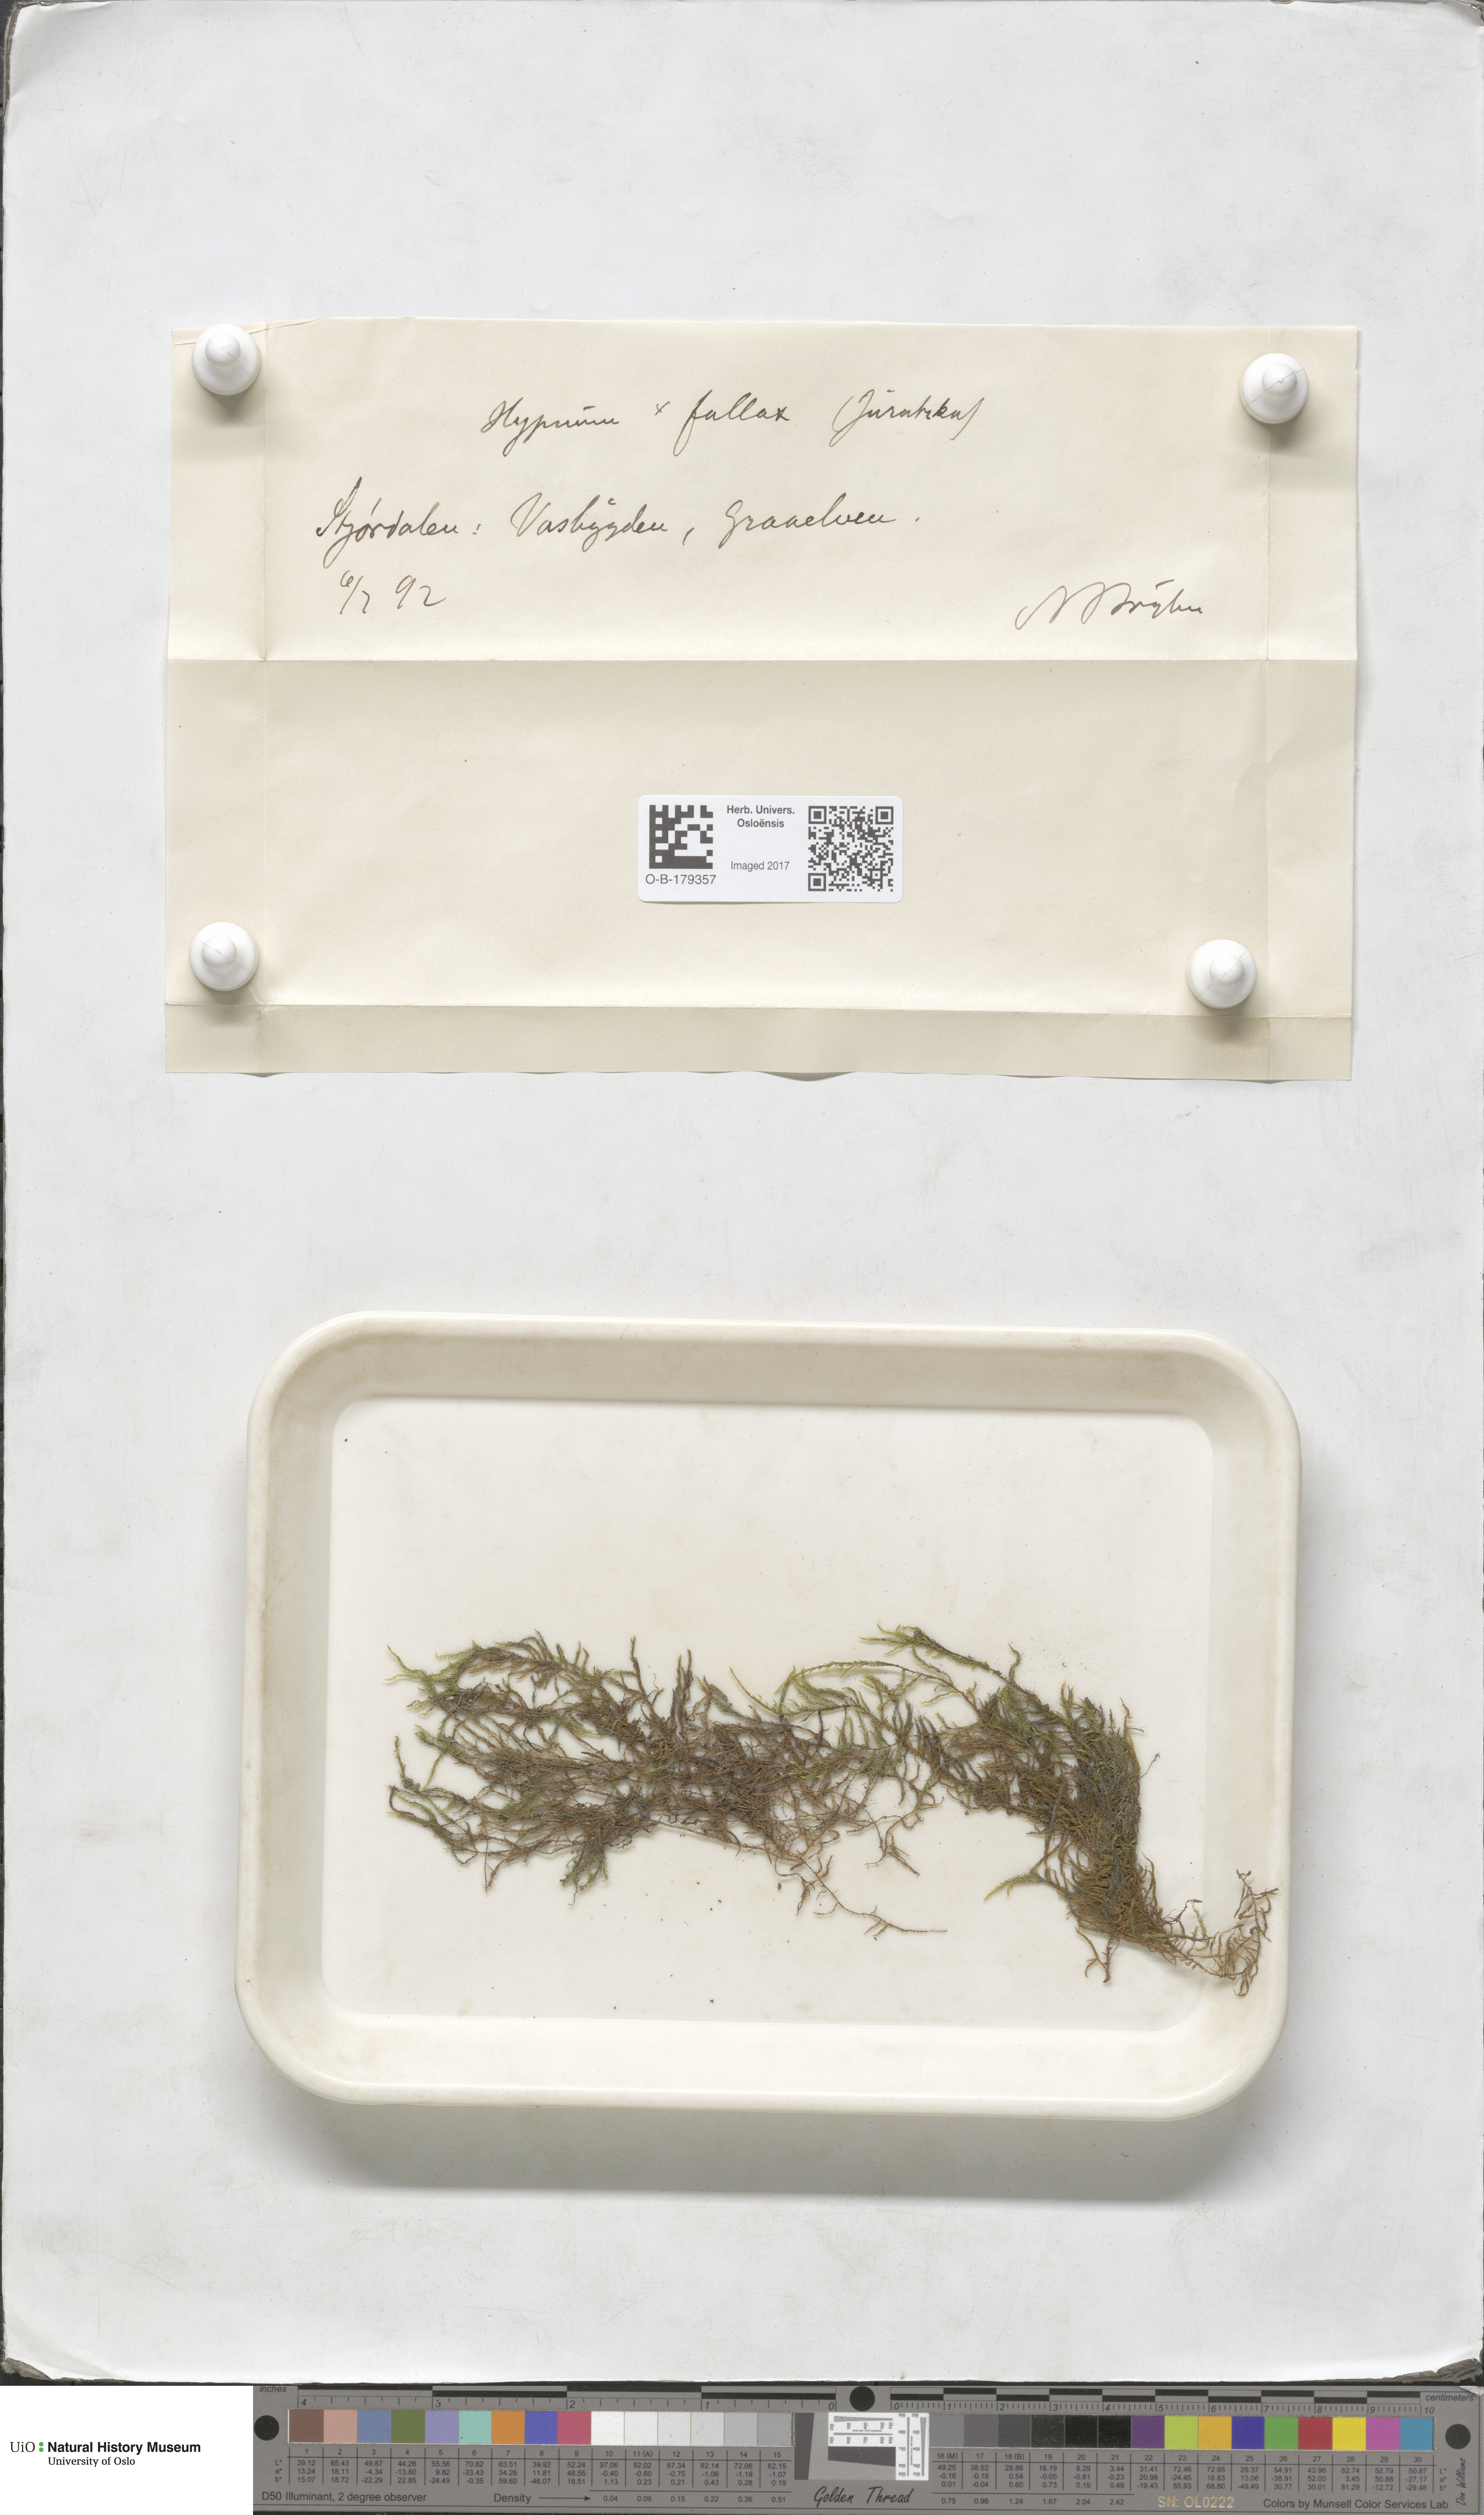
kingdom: Plantae
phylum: Bryophyta
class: Bryopsida
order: Hypnales
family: Amblystegiaceae
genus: Cratoneuron
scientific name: Cratoneuron filicinum
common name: Fern-leaved hook moss
